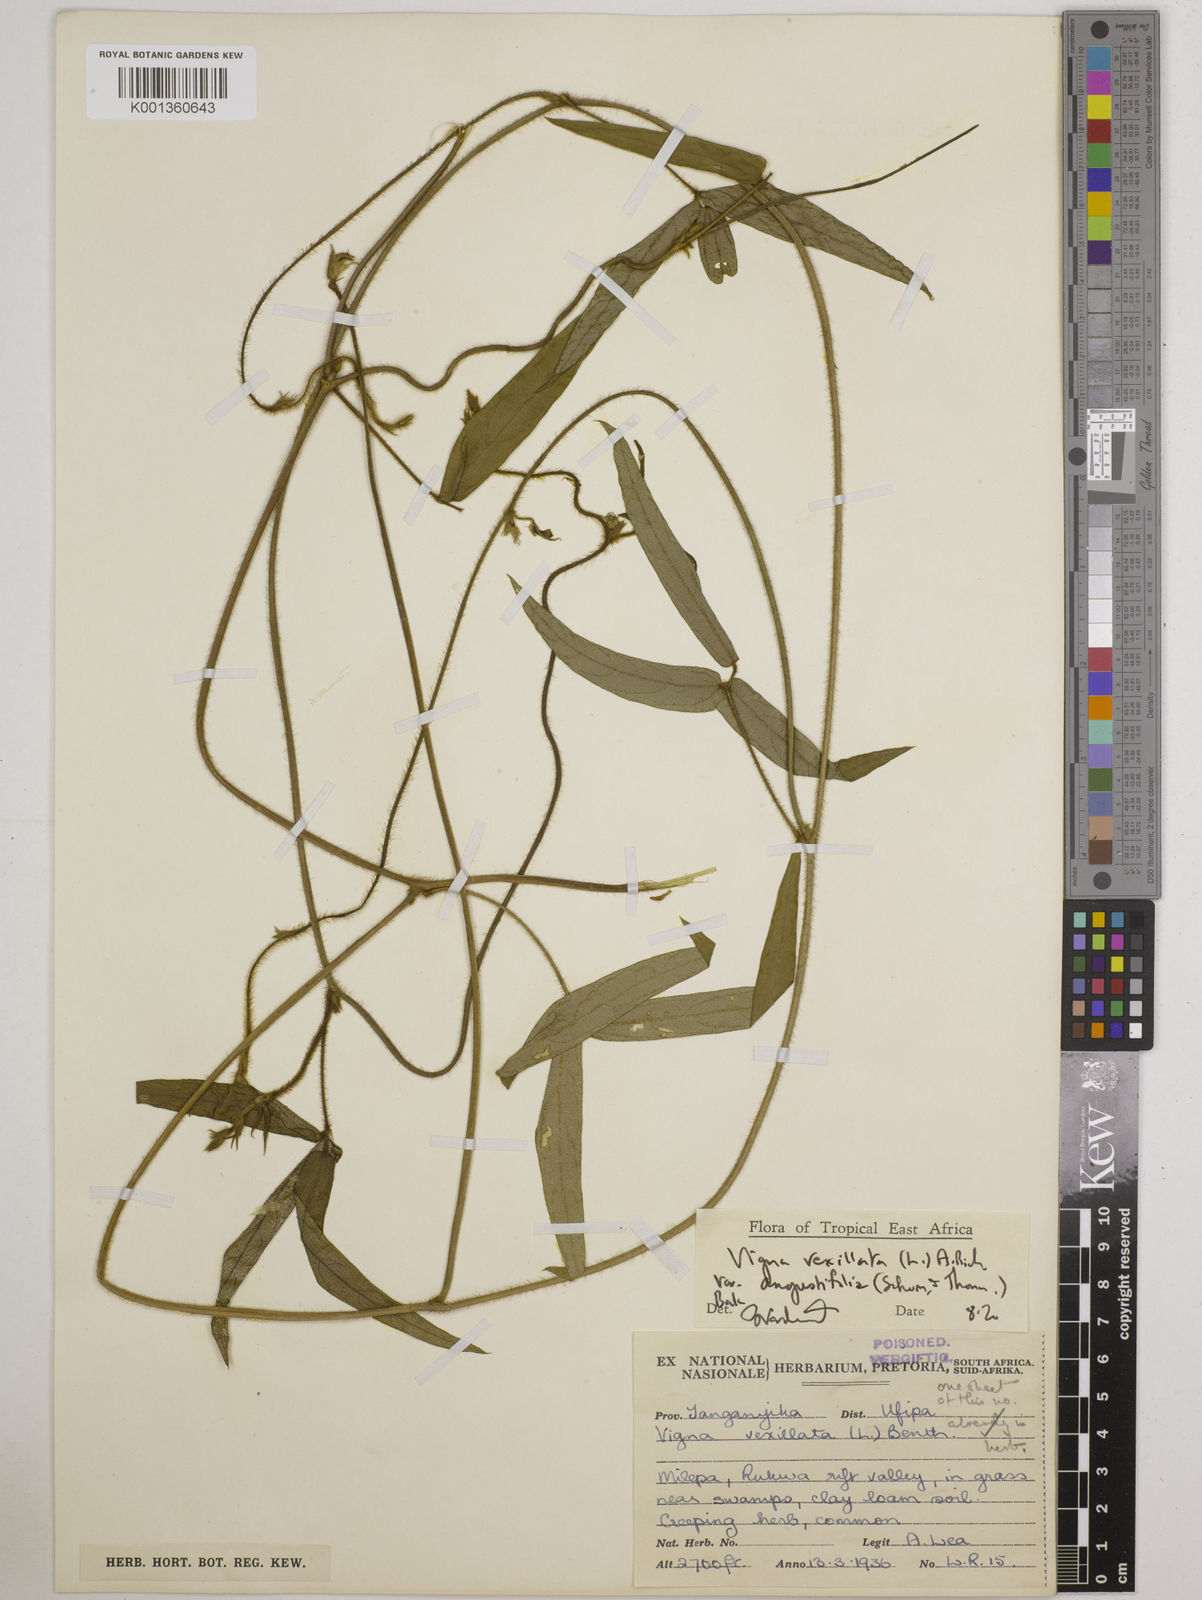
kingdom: Plantae
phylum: Tracheophyta
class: Magnoliopsida
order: Fabales
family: Fabaceae
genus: Vigna
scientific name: Vigna vexillata
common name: Zombi pea
